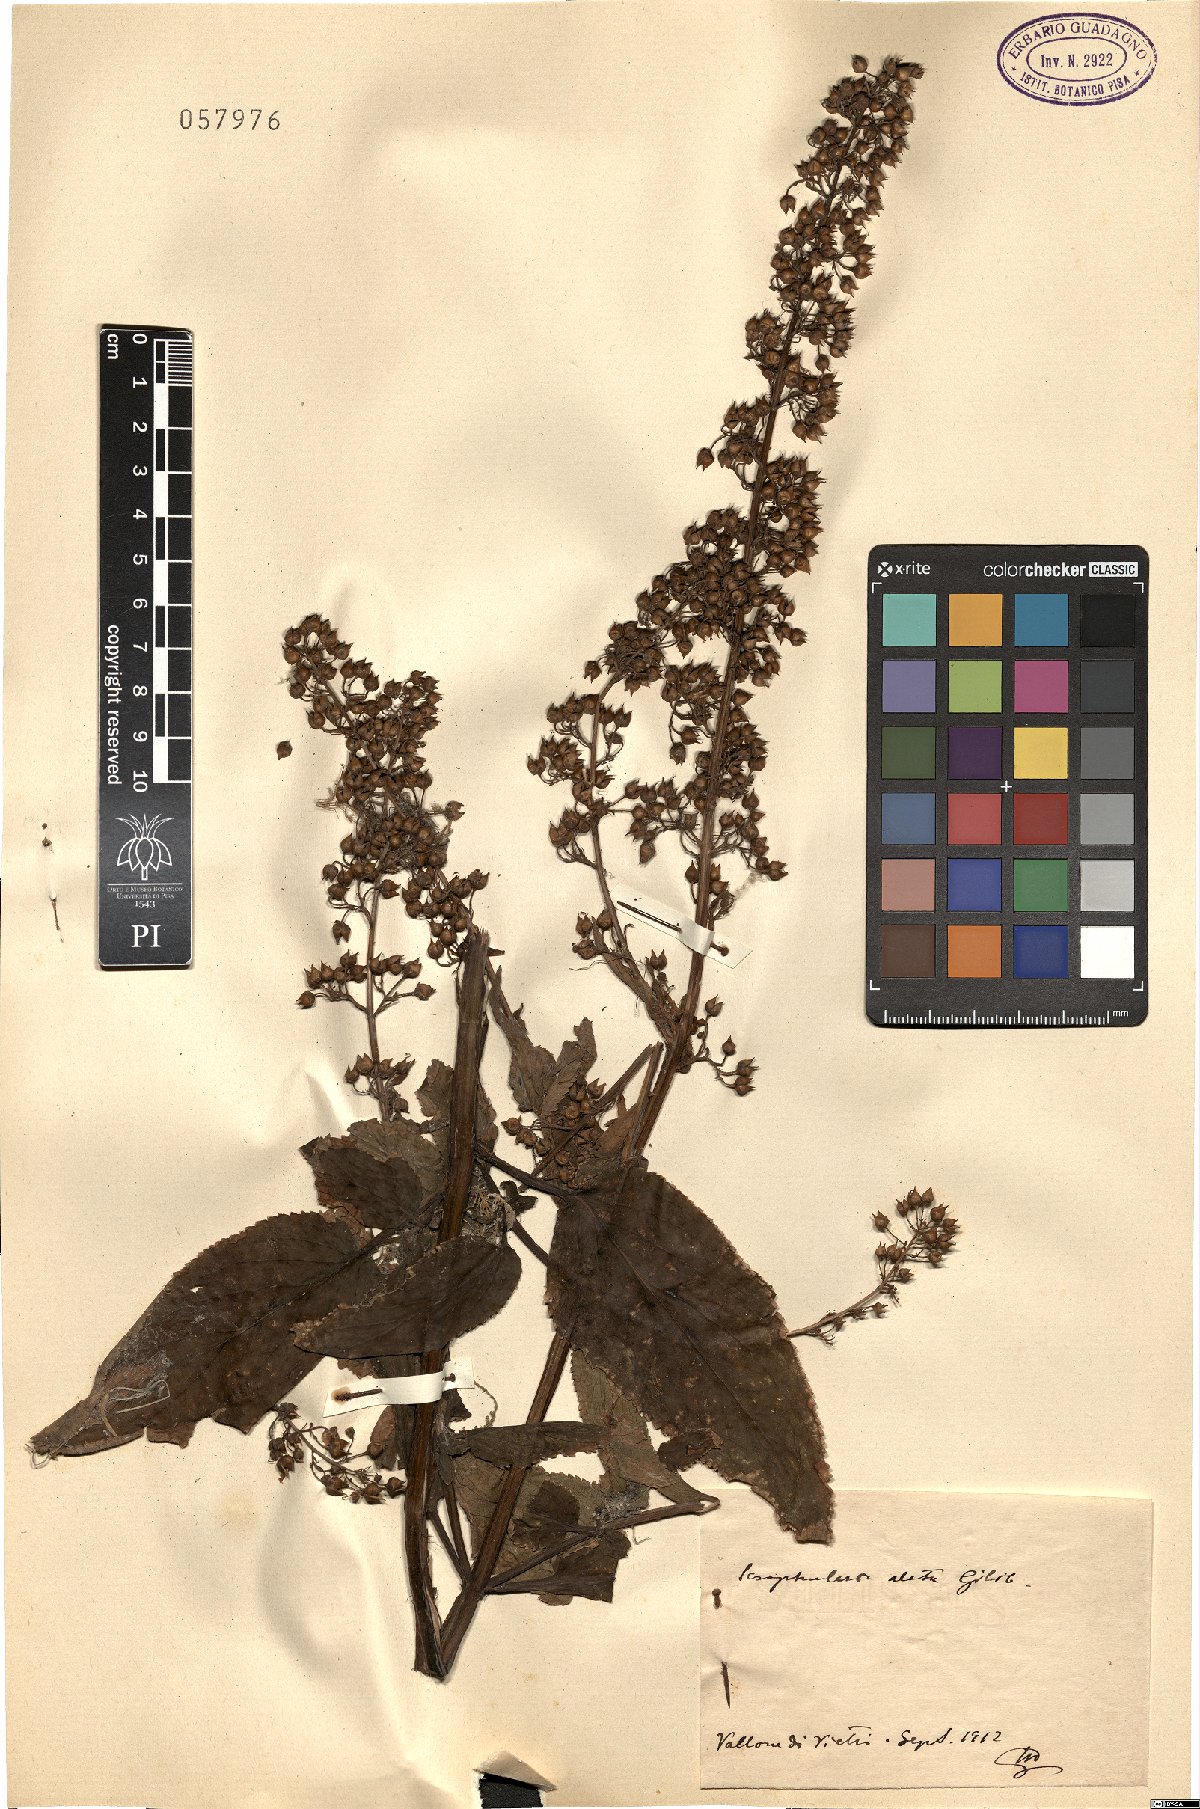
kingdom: Plantae
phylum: Tracheophyta
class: Magnoliopsida
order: Lamiales
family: Scrophulariaceae
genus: Scrophularia
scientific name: Scrophularia umbrosa
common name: Green figwort
